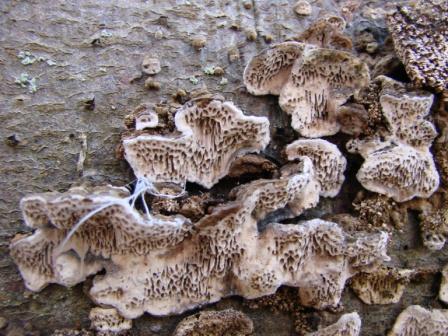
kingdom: Fungi
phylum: Basidiomycota
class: Agaricomycetes
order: Polyporales
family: Polyporaceae
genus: Podofomes
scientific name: Podofomes mollis
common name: blød begporesvamp
